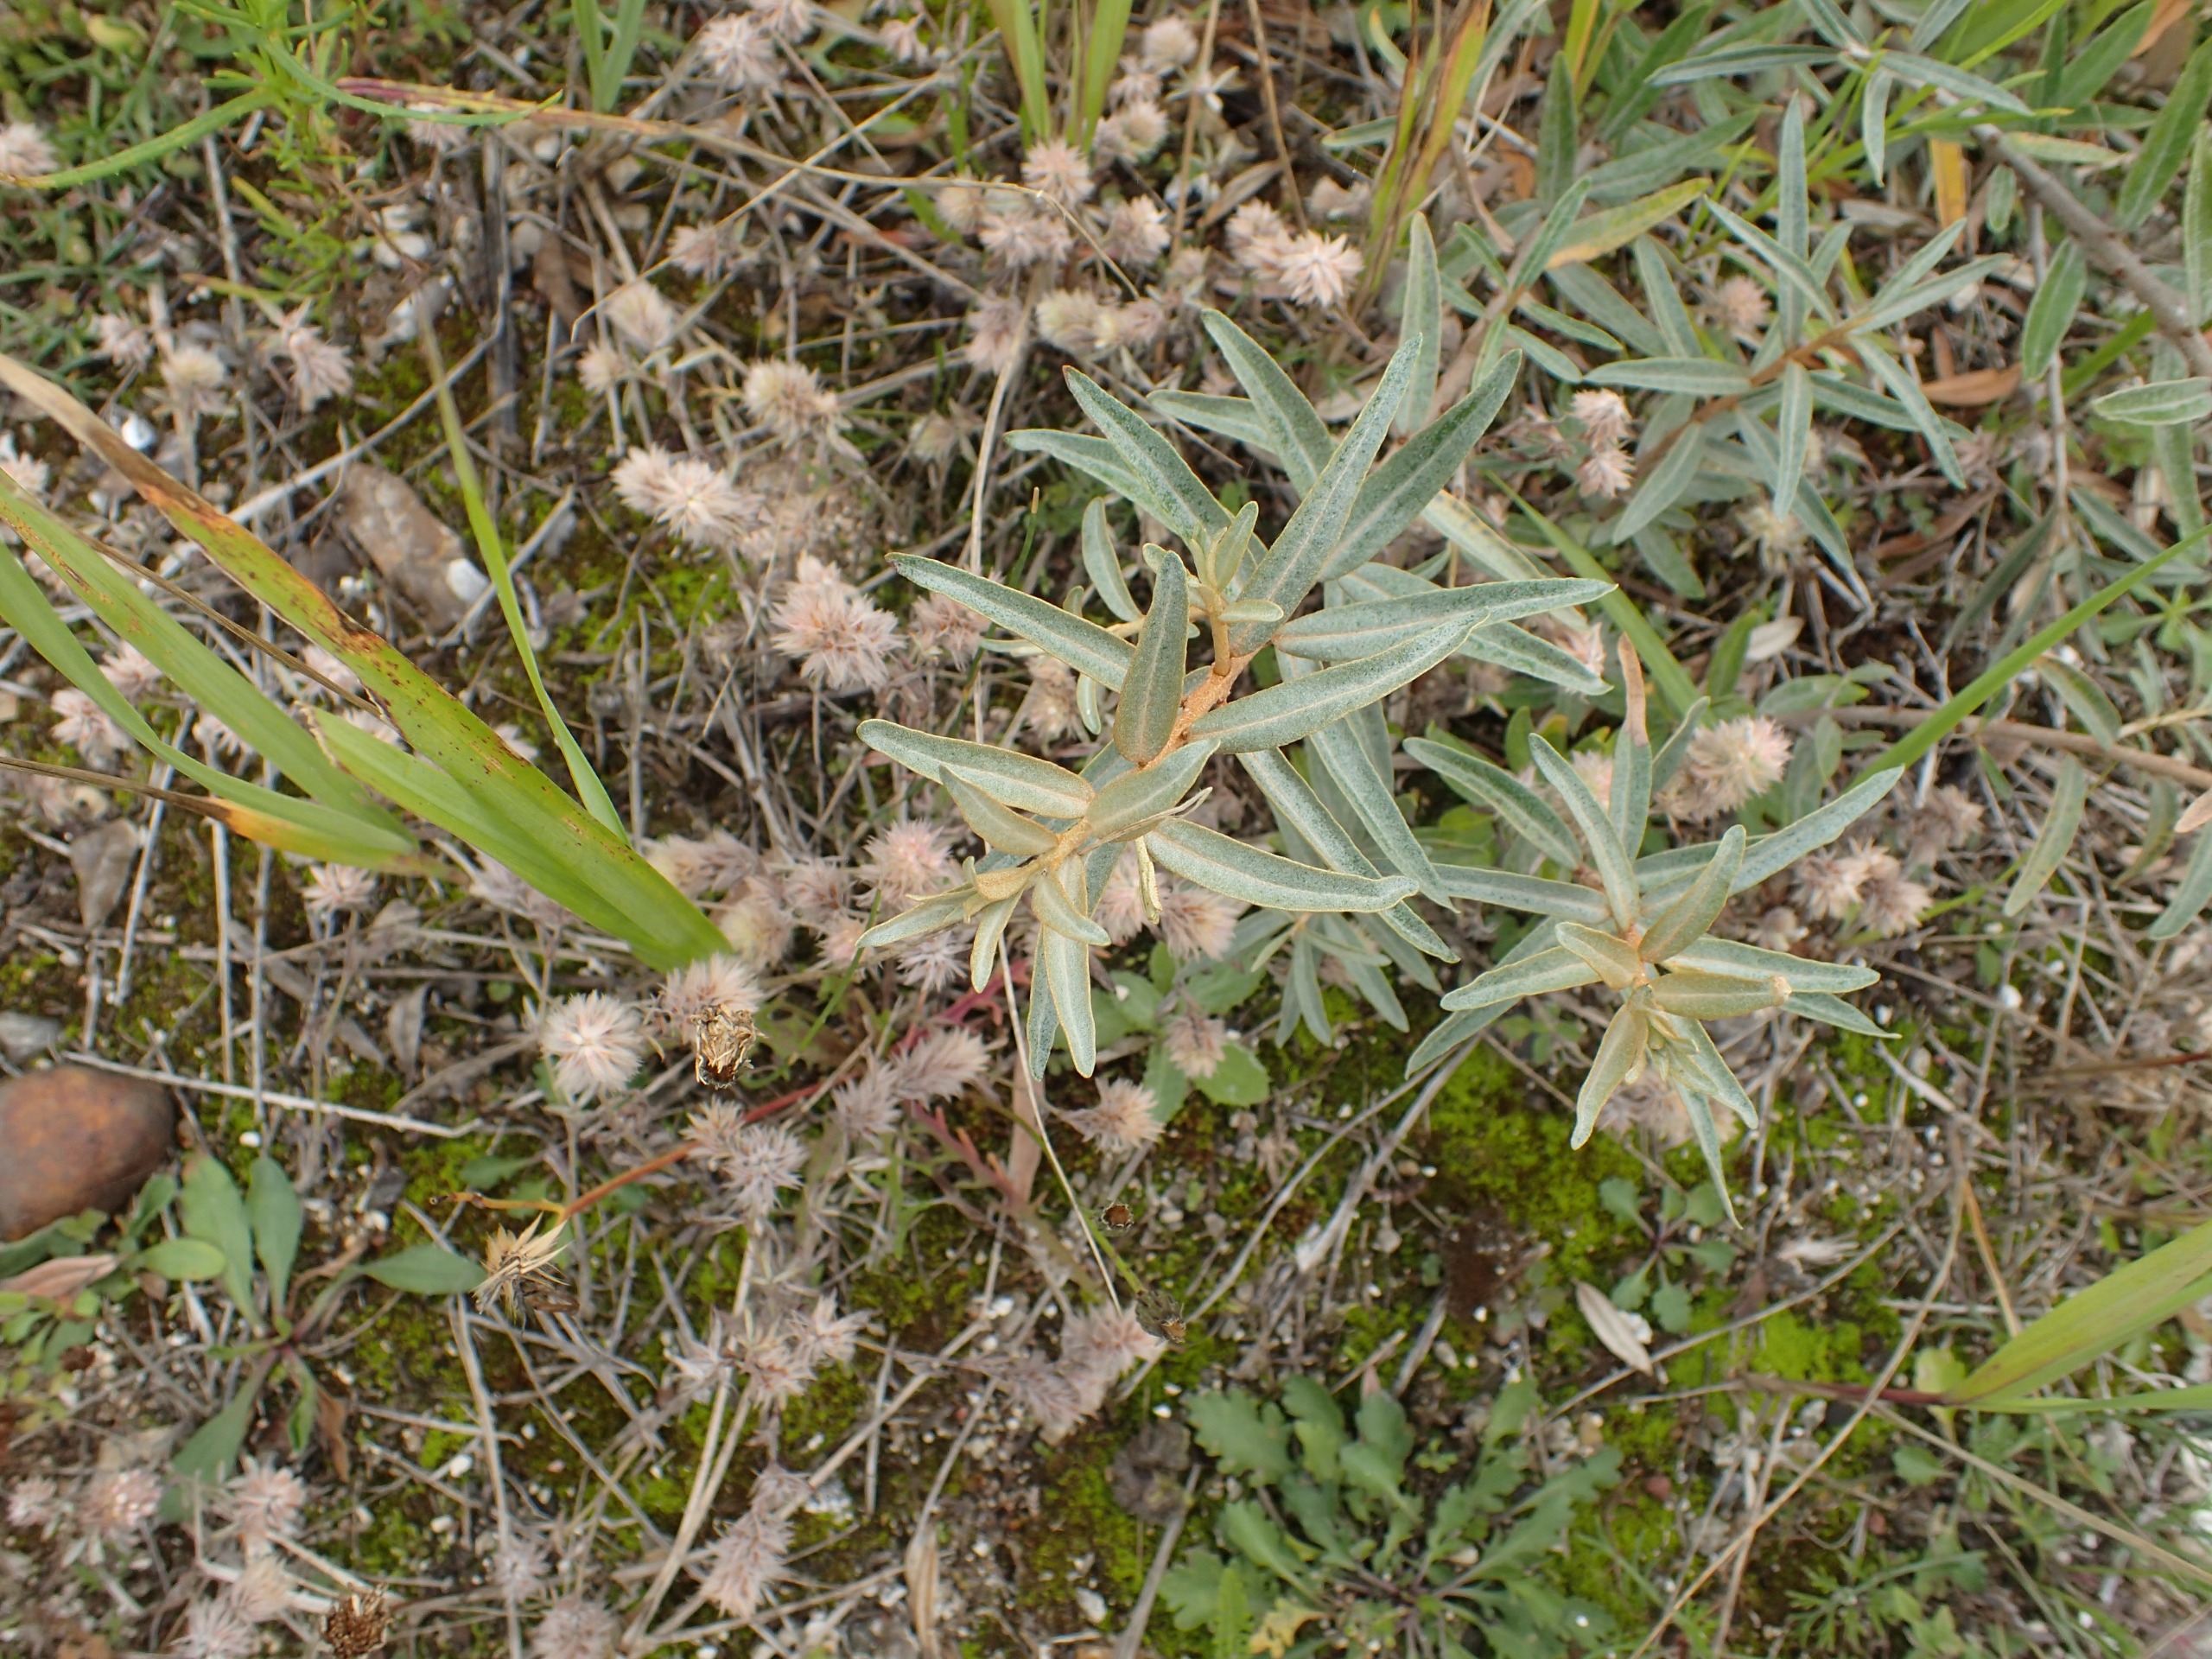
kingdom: Plantae
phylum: Tracheophyta
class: Magnoliopsida
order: Rosales
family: Elaeagnaceae
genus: Hippophae
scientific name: Hippophae rhamnoides
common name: Havtorn
